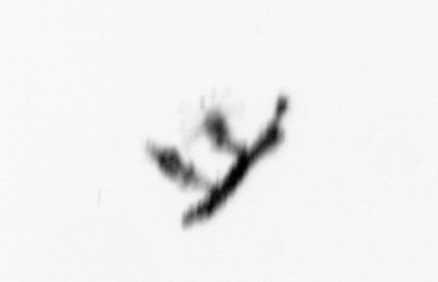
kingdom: Animalia
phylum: Cnidaria
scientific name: Cnidaria
